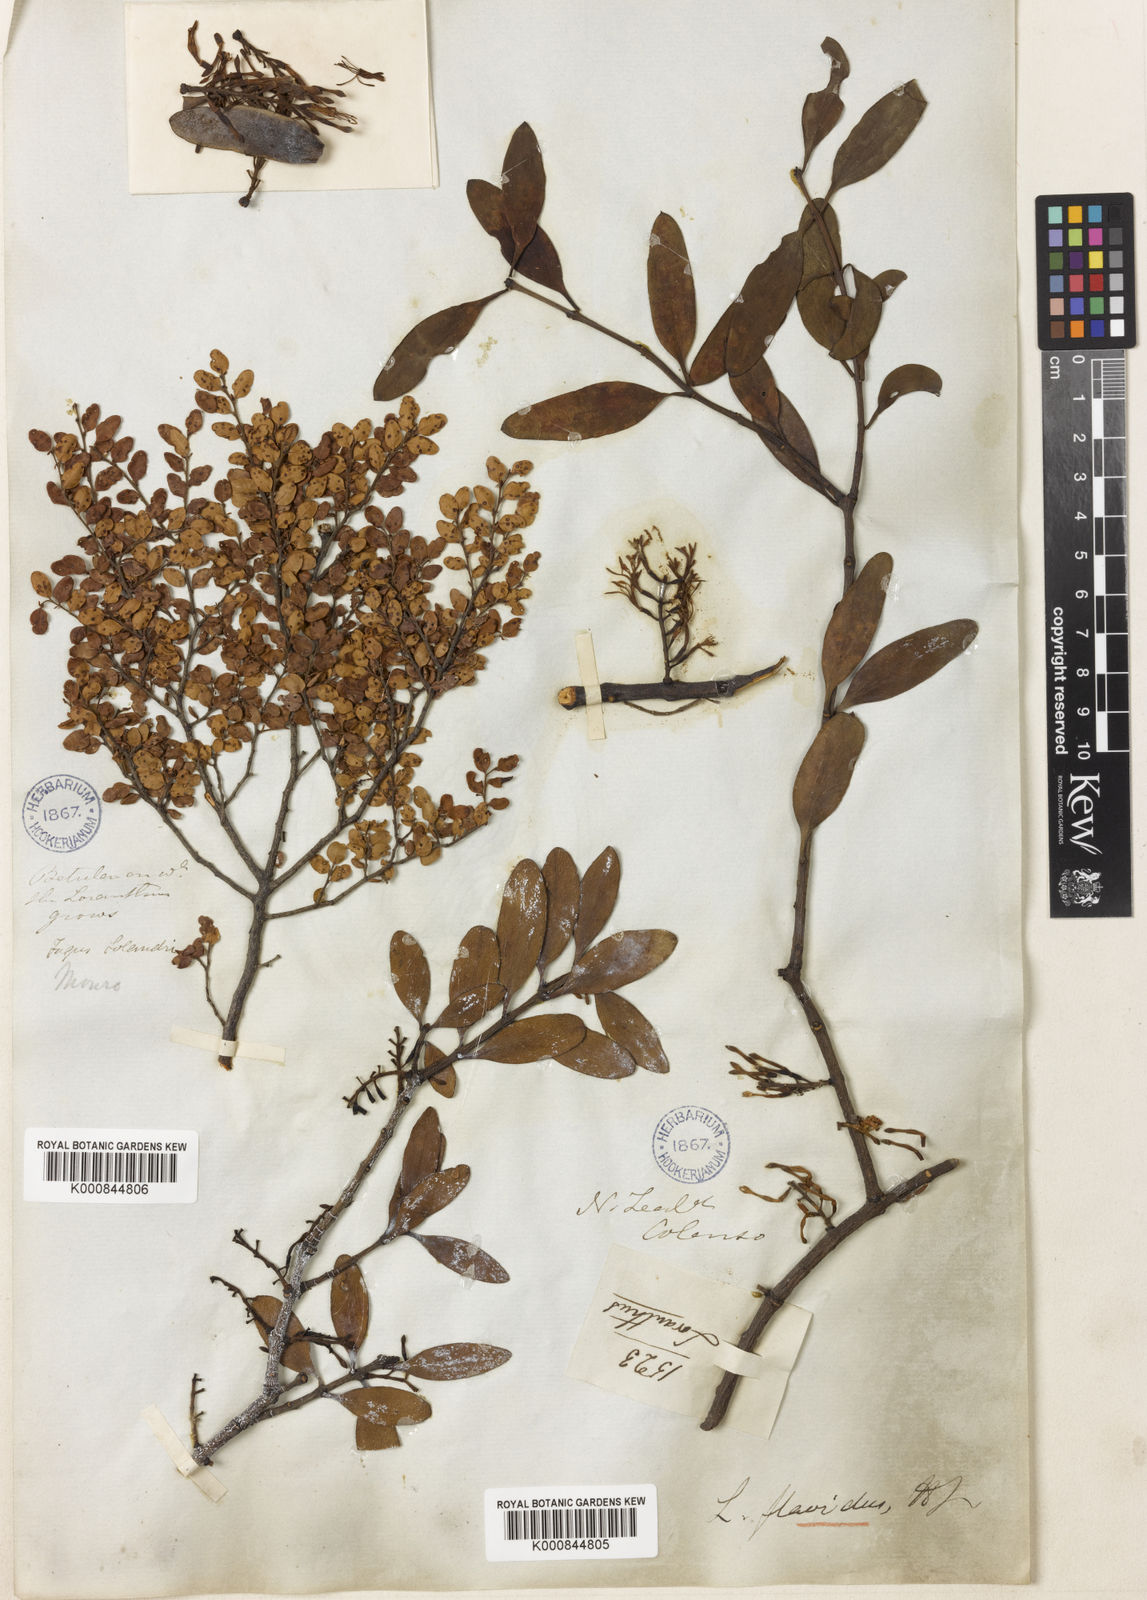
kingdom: Plantae
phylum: Tracheophyta
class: Magnoliopsida
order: Santalales
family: Loranthaceae
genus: Alepis
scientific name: Alepis flavida
